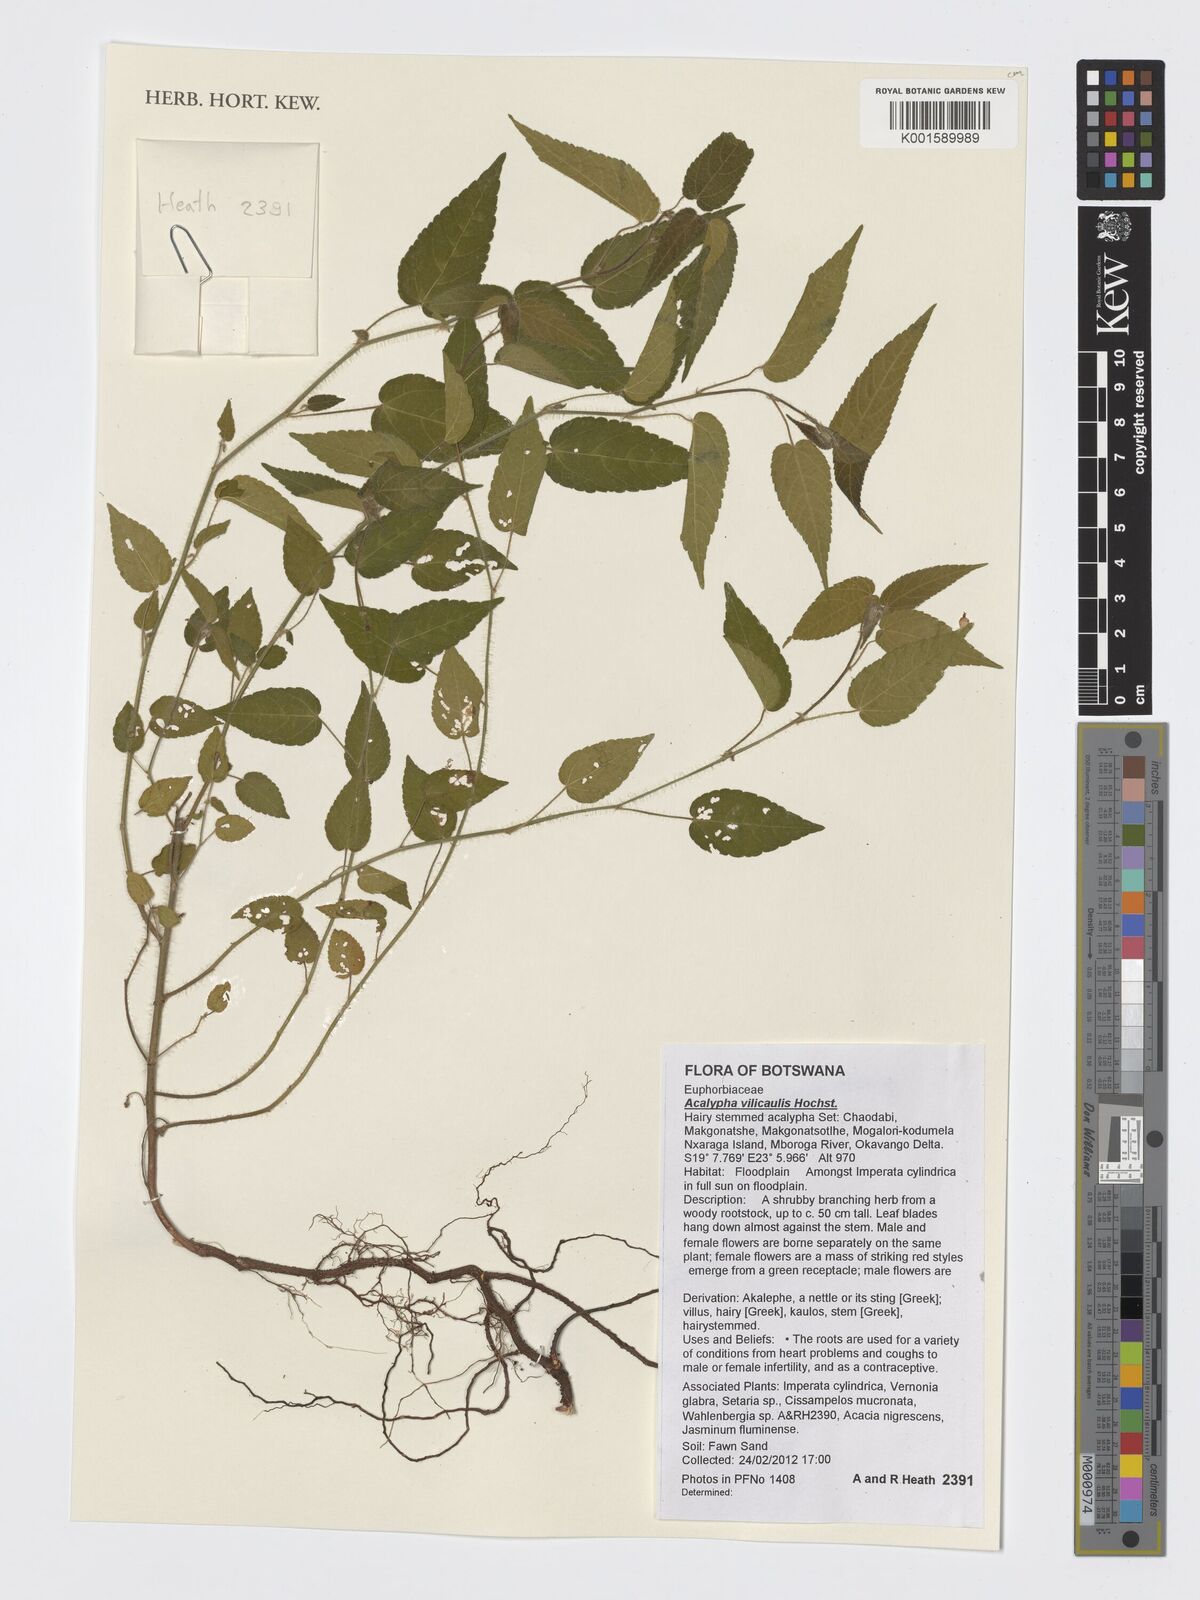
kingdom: Plantae
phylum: Tracheophyta
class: Magnoliopsida
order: Malpighiales
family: Euphorbiaceae
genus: Acalypha
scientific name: Acalypha petiolaris
